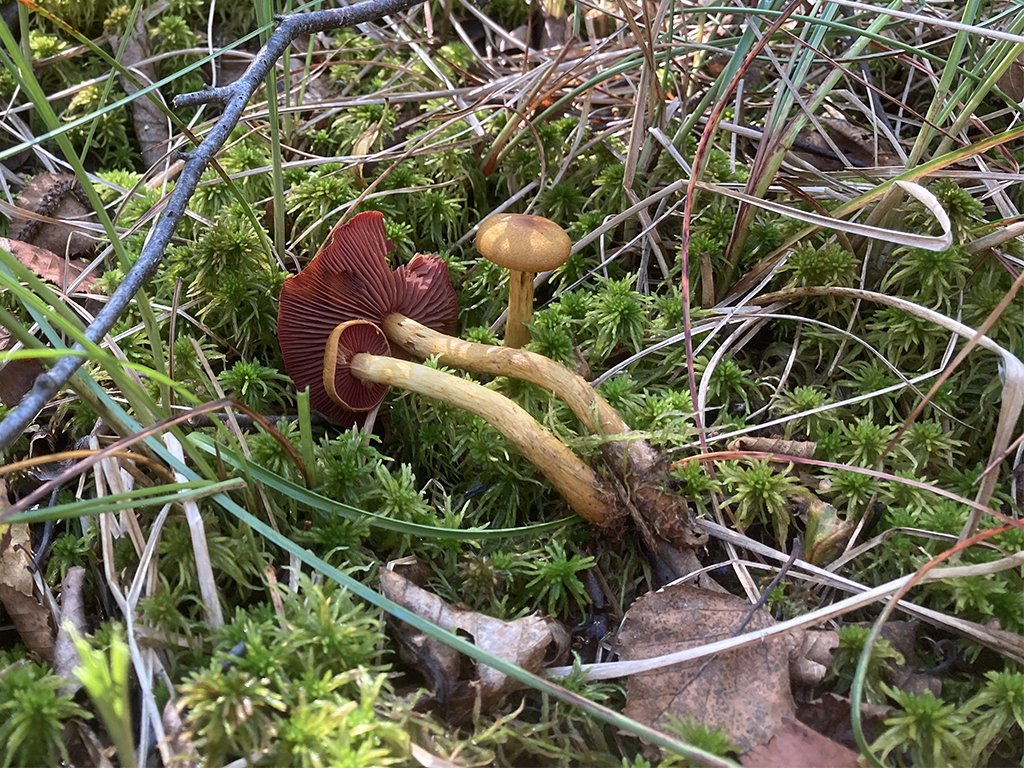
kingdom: Fungi
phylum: Basidiomycota
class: Agaricomycetes
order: Agaricales
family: Cortinariaceae
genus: Cortinarius
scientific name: Cortinarius
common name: cinnoberbladet slørhat
